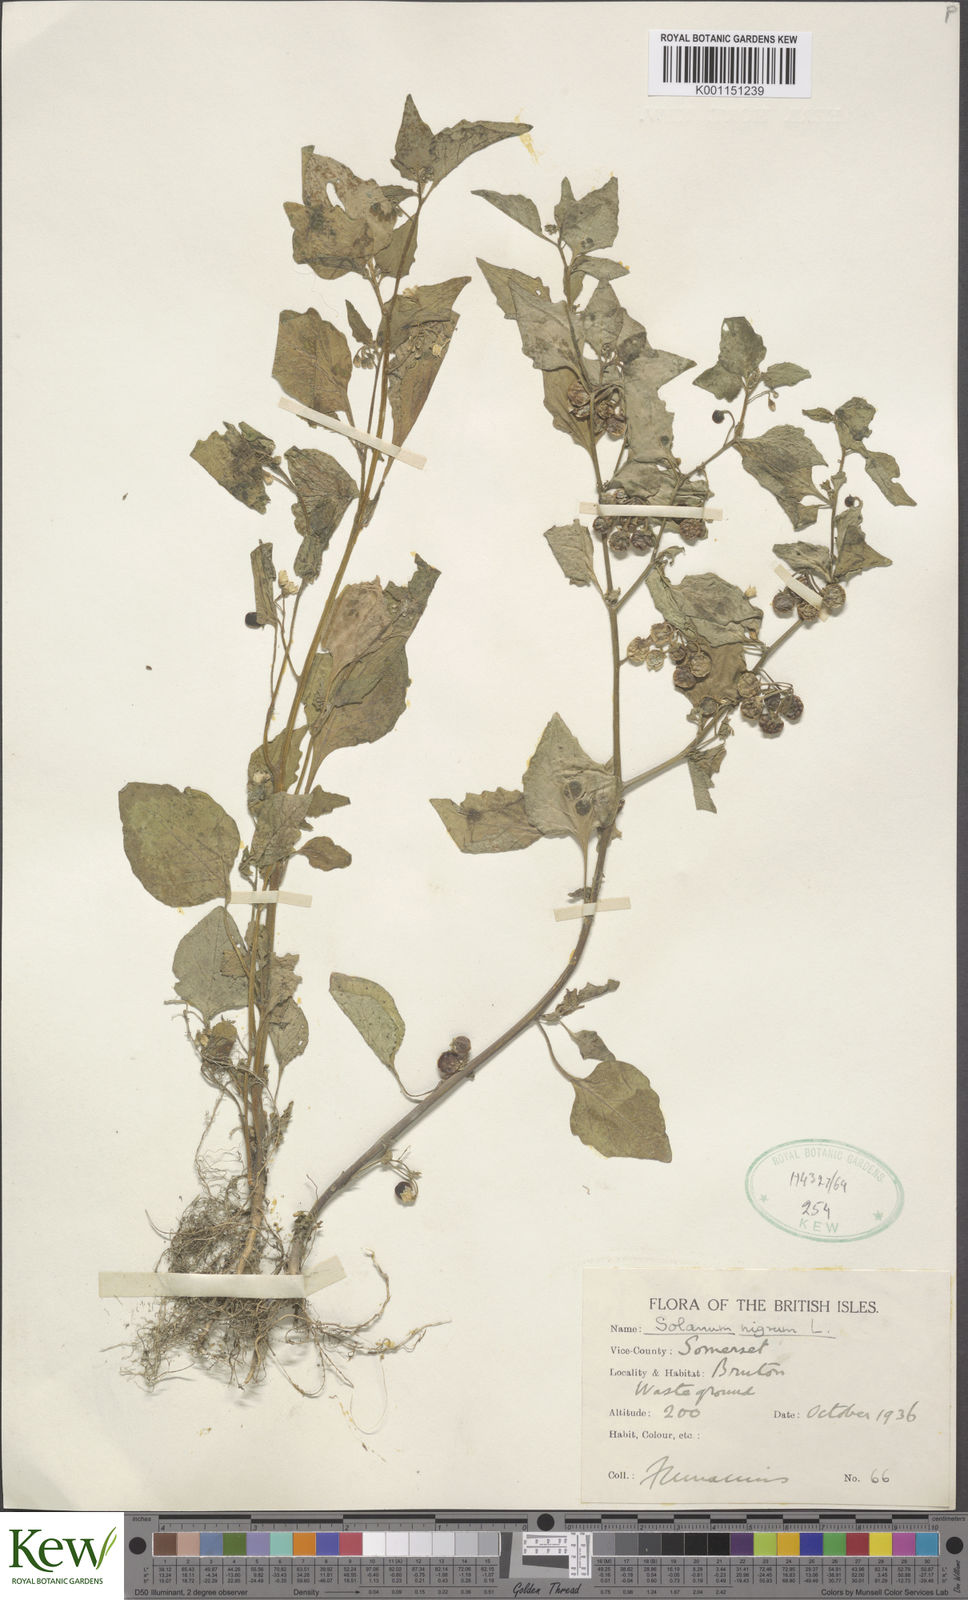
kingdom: Plantae
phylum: Tracheophyta
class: Magnoliopsida
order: Solanales
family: Solanaceae
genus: Solanum
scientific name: Solanum nigrum
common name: Black nightshade
